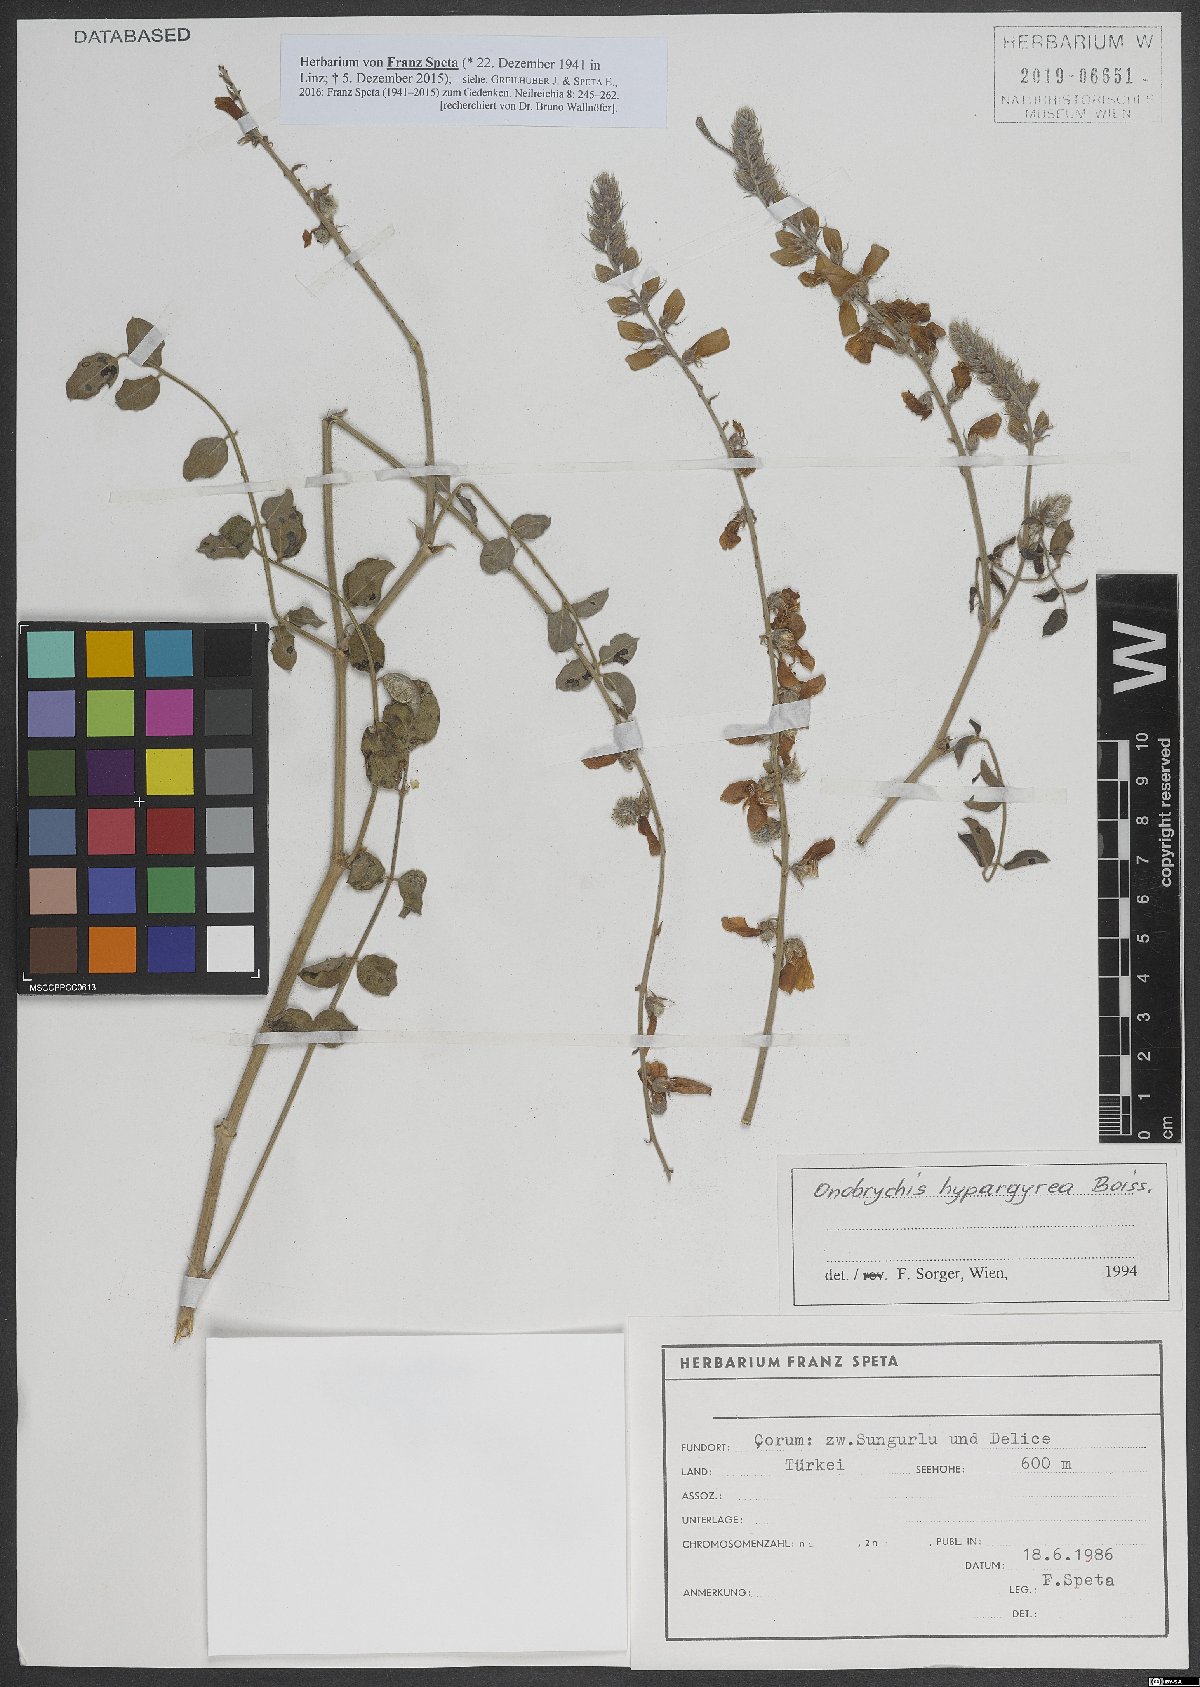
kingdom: Plantae
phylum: Tracheophyta
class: Magnoliopsida
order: Fabales
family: Fabaceae
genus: Onobrychis
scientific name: Onobrychis hypargyrea
